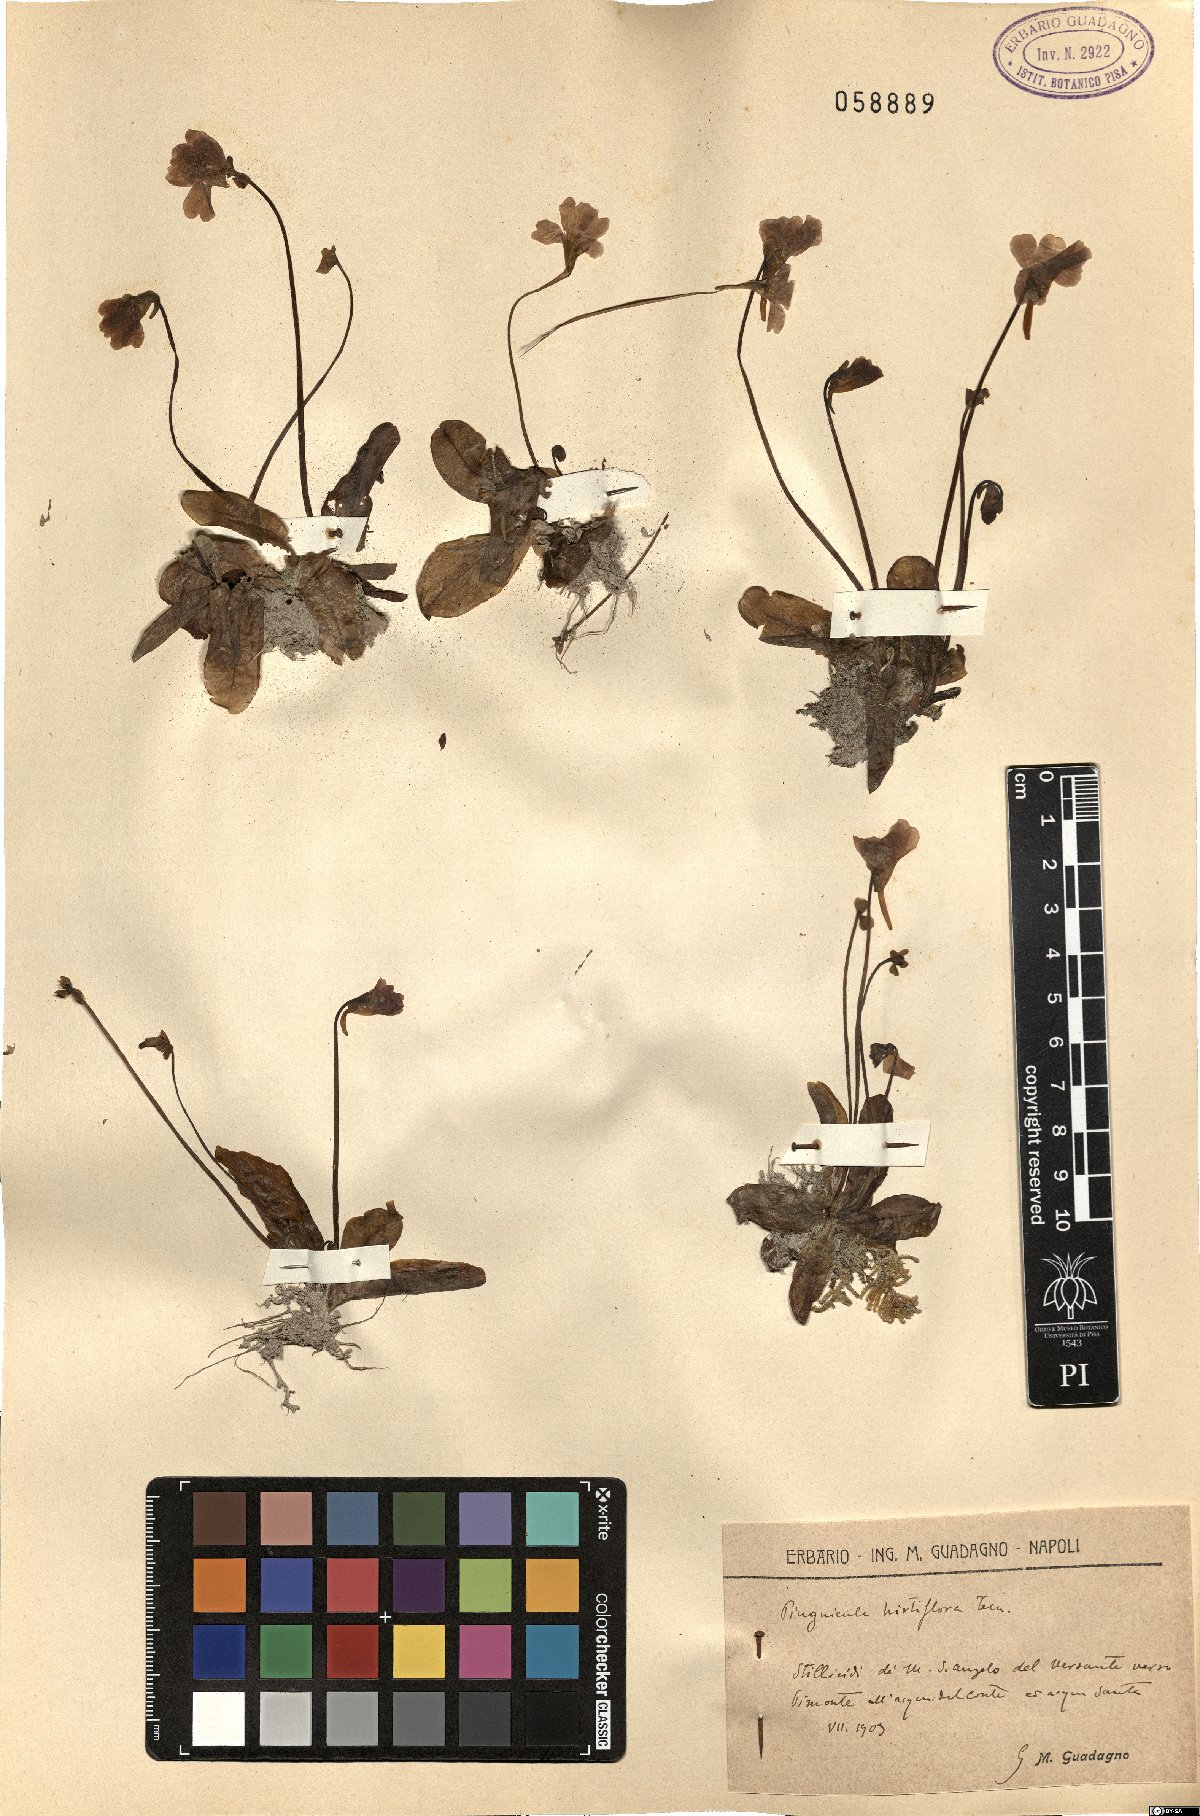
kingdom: Plantae
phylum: Tracheophyta
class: Magnoliopsida
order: Lamiales
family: Lentibulariaceae
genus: Pinguicula
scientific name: Pinguicula crystallina
